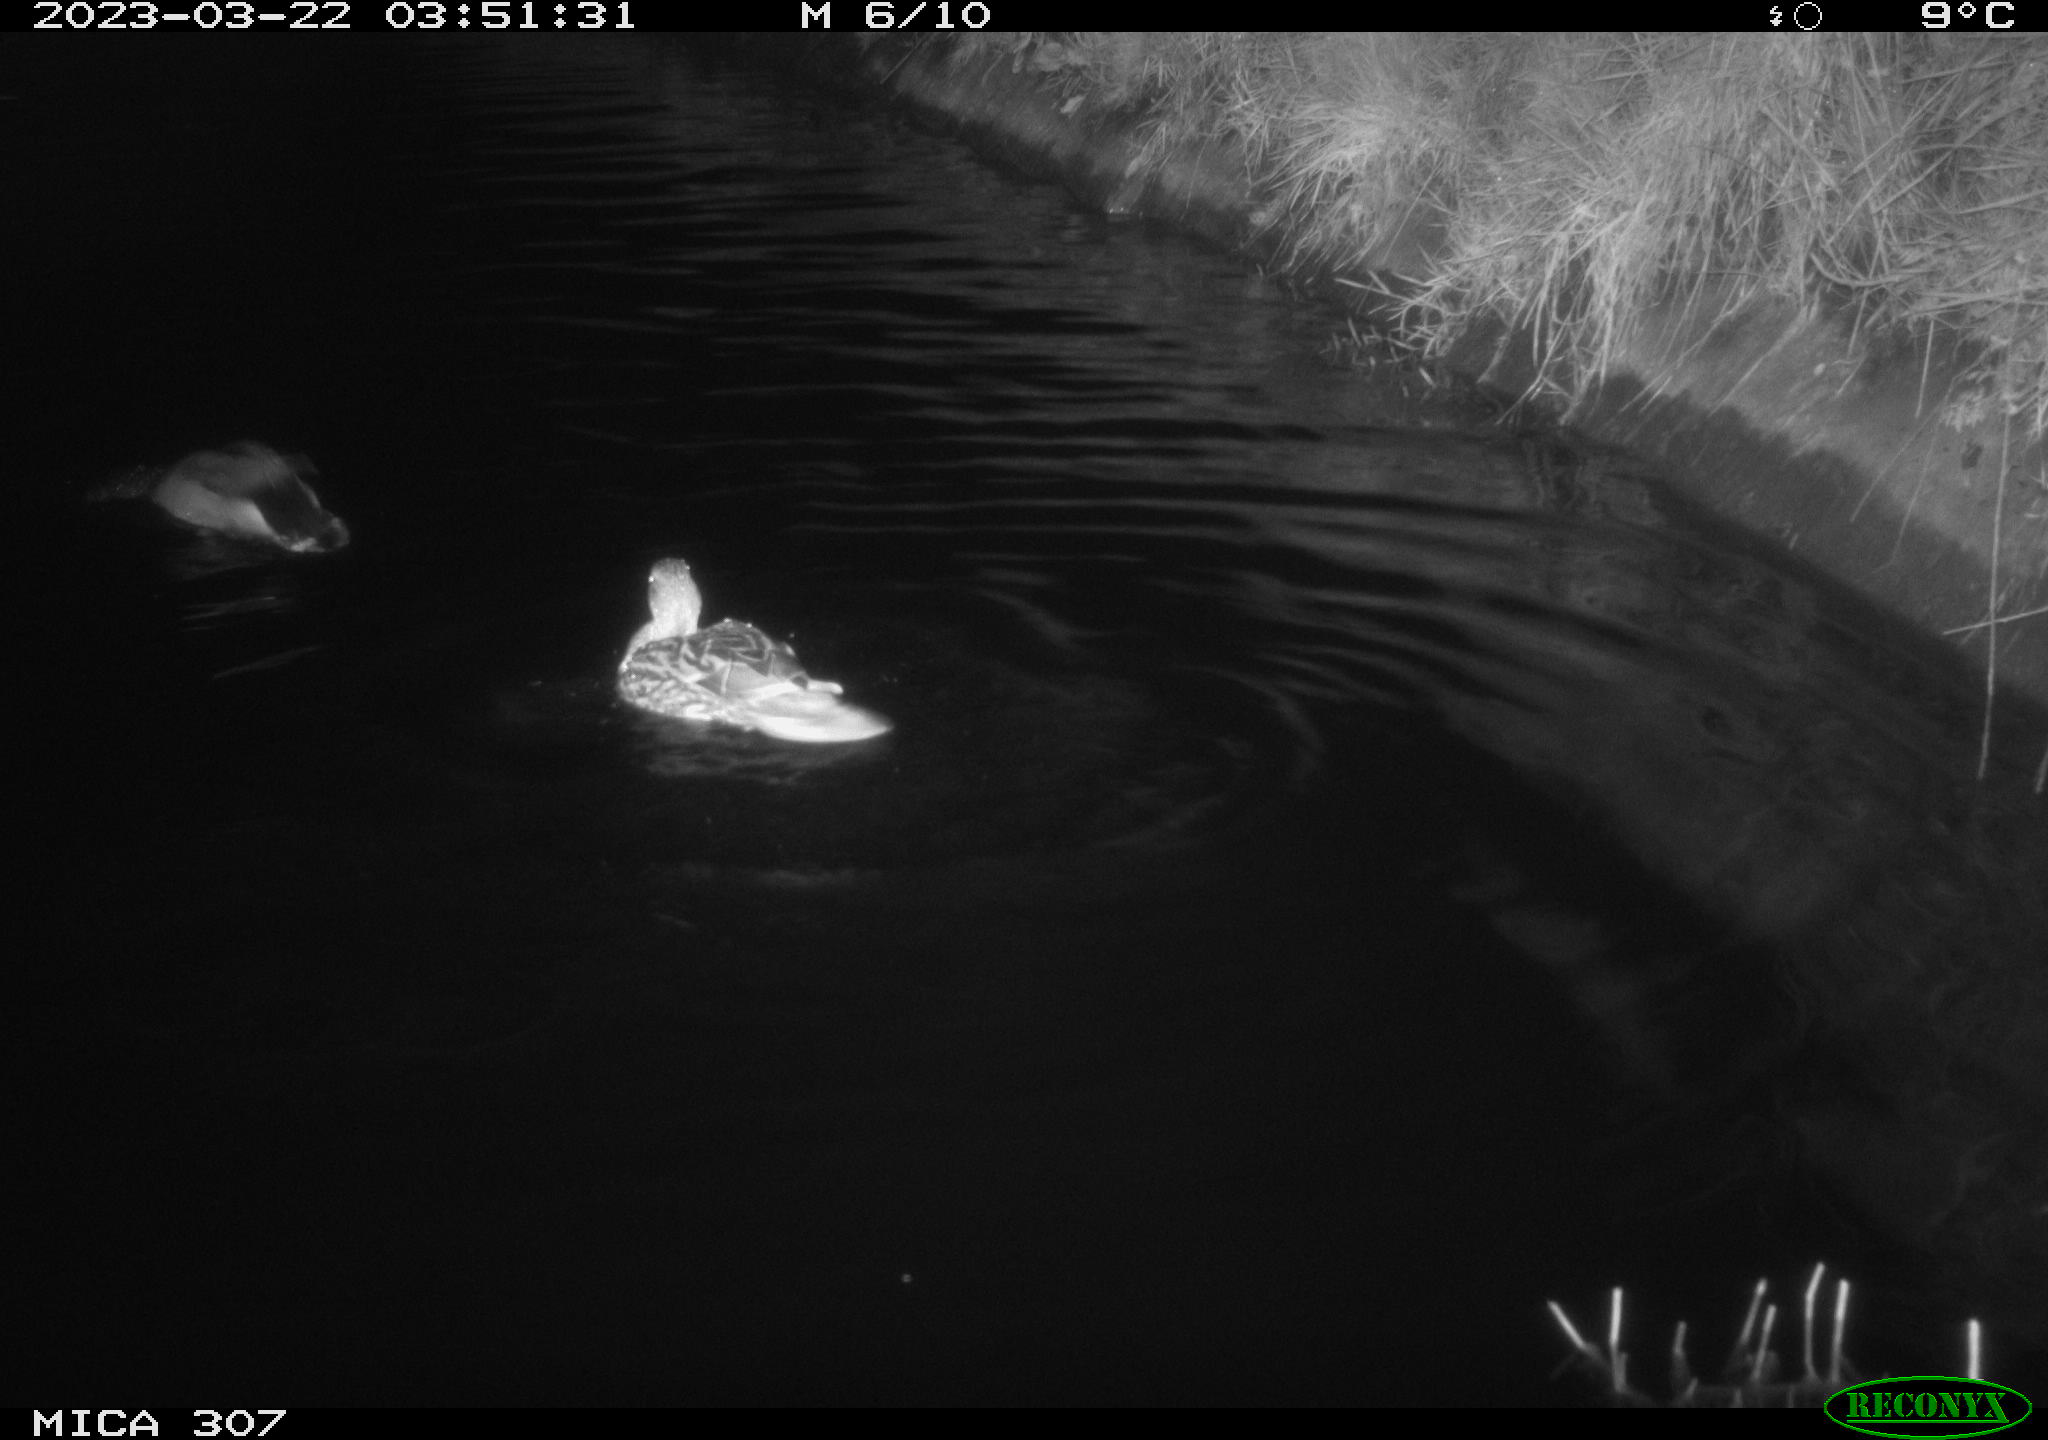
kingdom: Animalia
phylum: Chordata
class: Aves
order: Anseriformes
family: Anatidae
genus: Anas
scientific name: Anas
